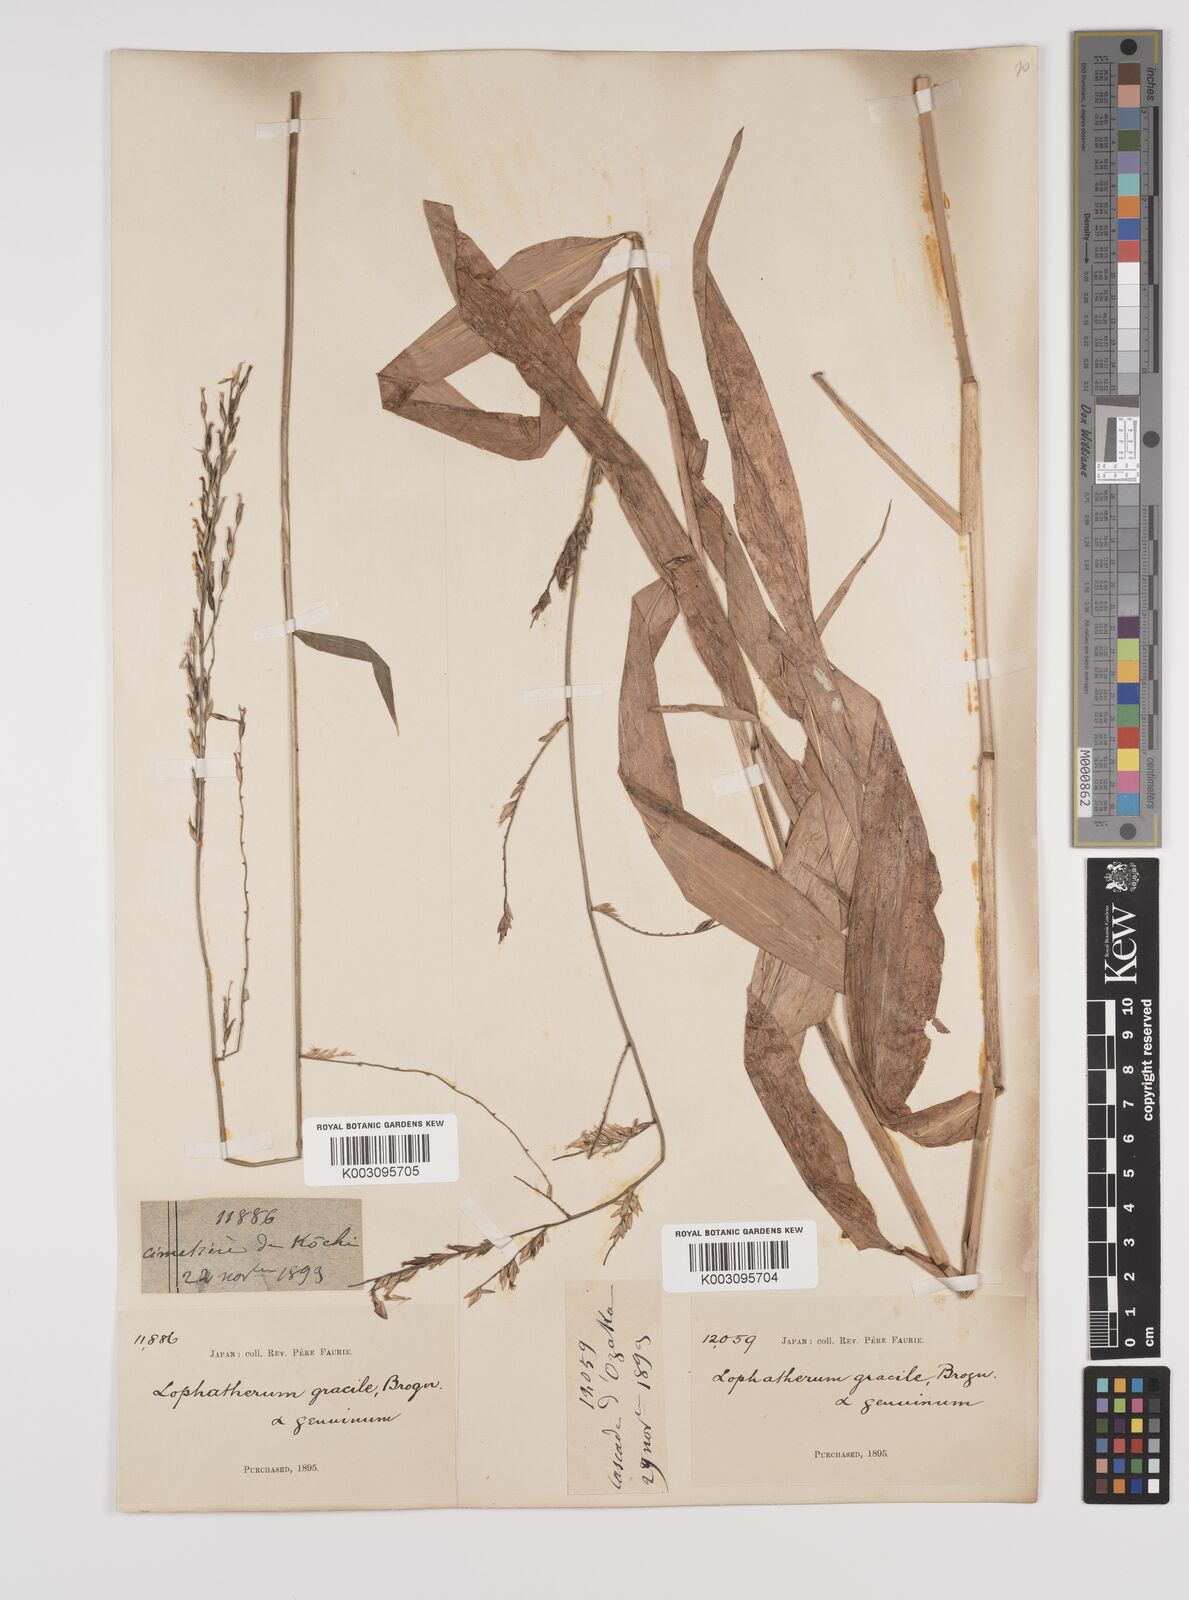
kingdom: Plantae
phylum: Tracheophyta
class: Liliopsida
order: Poales
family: Poaceae
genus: Lophatherum
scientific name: Lophatherum gracile
